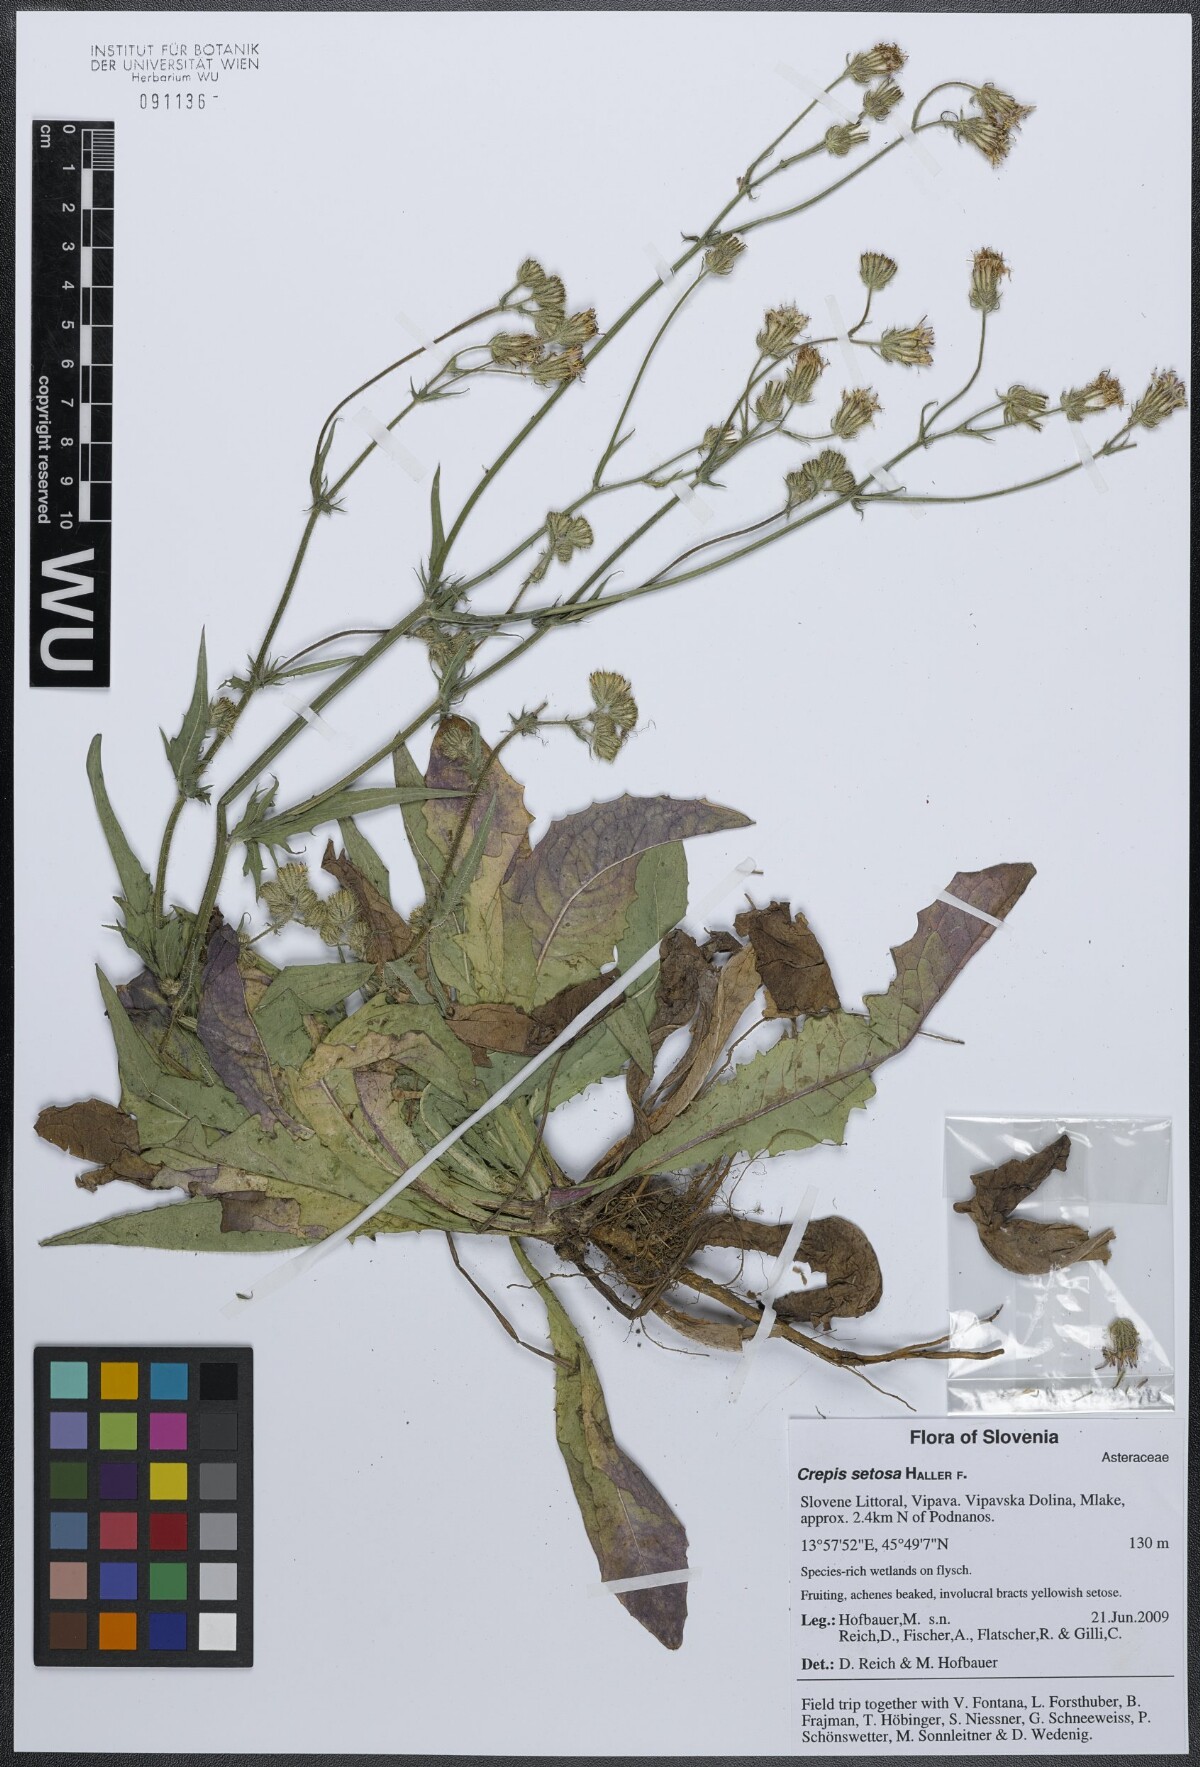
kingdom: Plantae
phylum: Tracheophyta
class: Magnoliopsida
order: Asterales
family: Asteraceae
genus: Crepis
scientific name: Crepis setosa
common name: Bristly hawk's-beard
